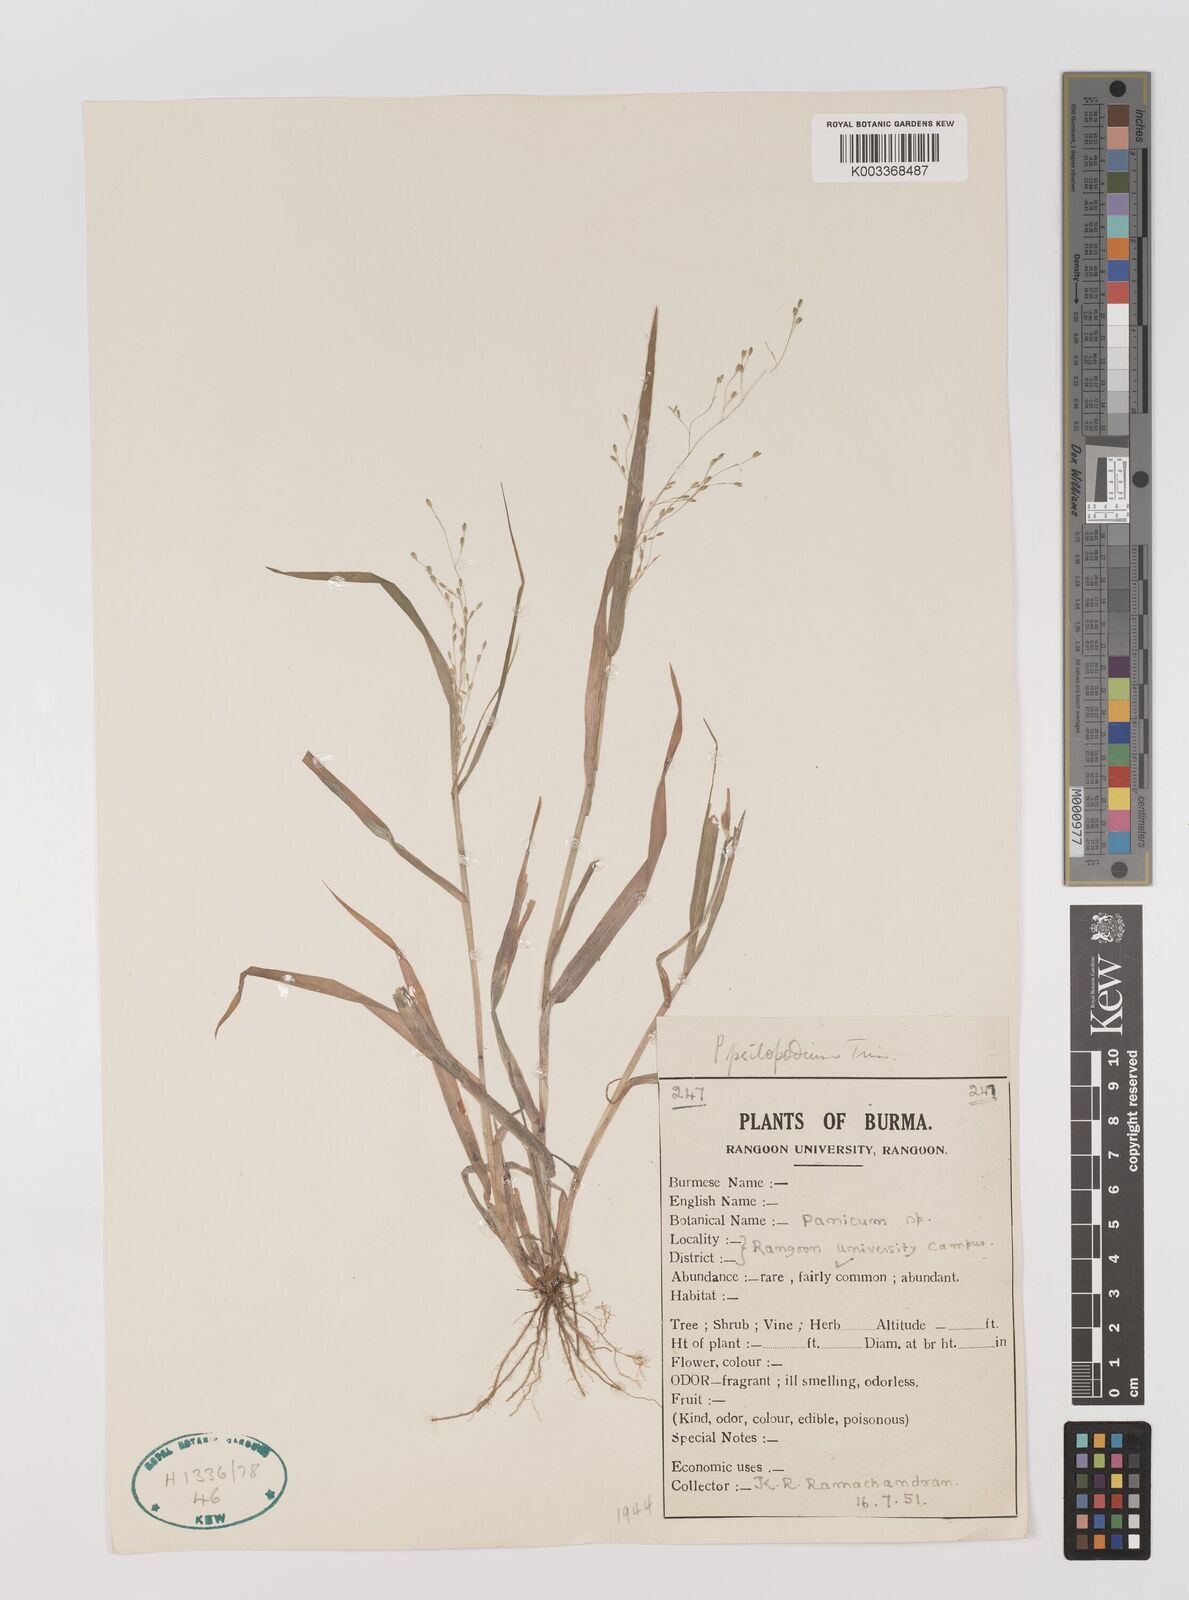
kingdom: Plantae
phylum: Tracheophyta
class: Liliopsida
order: Poales
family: Poaceae
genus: Panicum
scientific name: Panicum sumatrense
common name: Little millet
